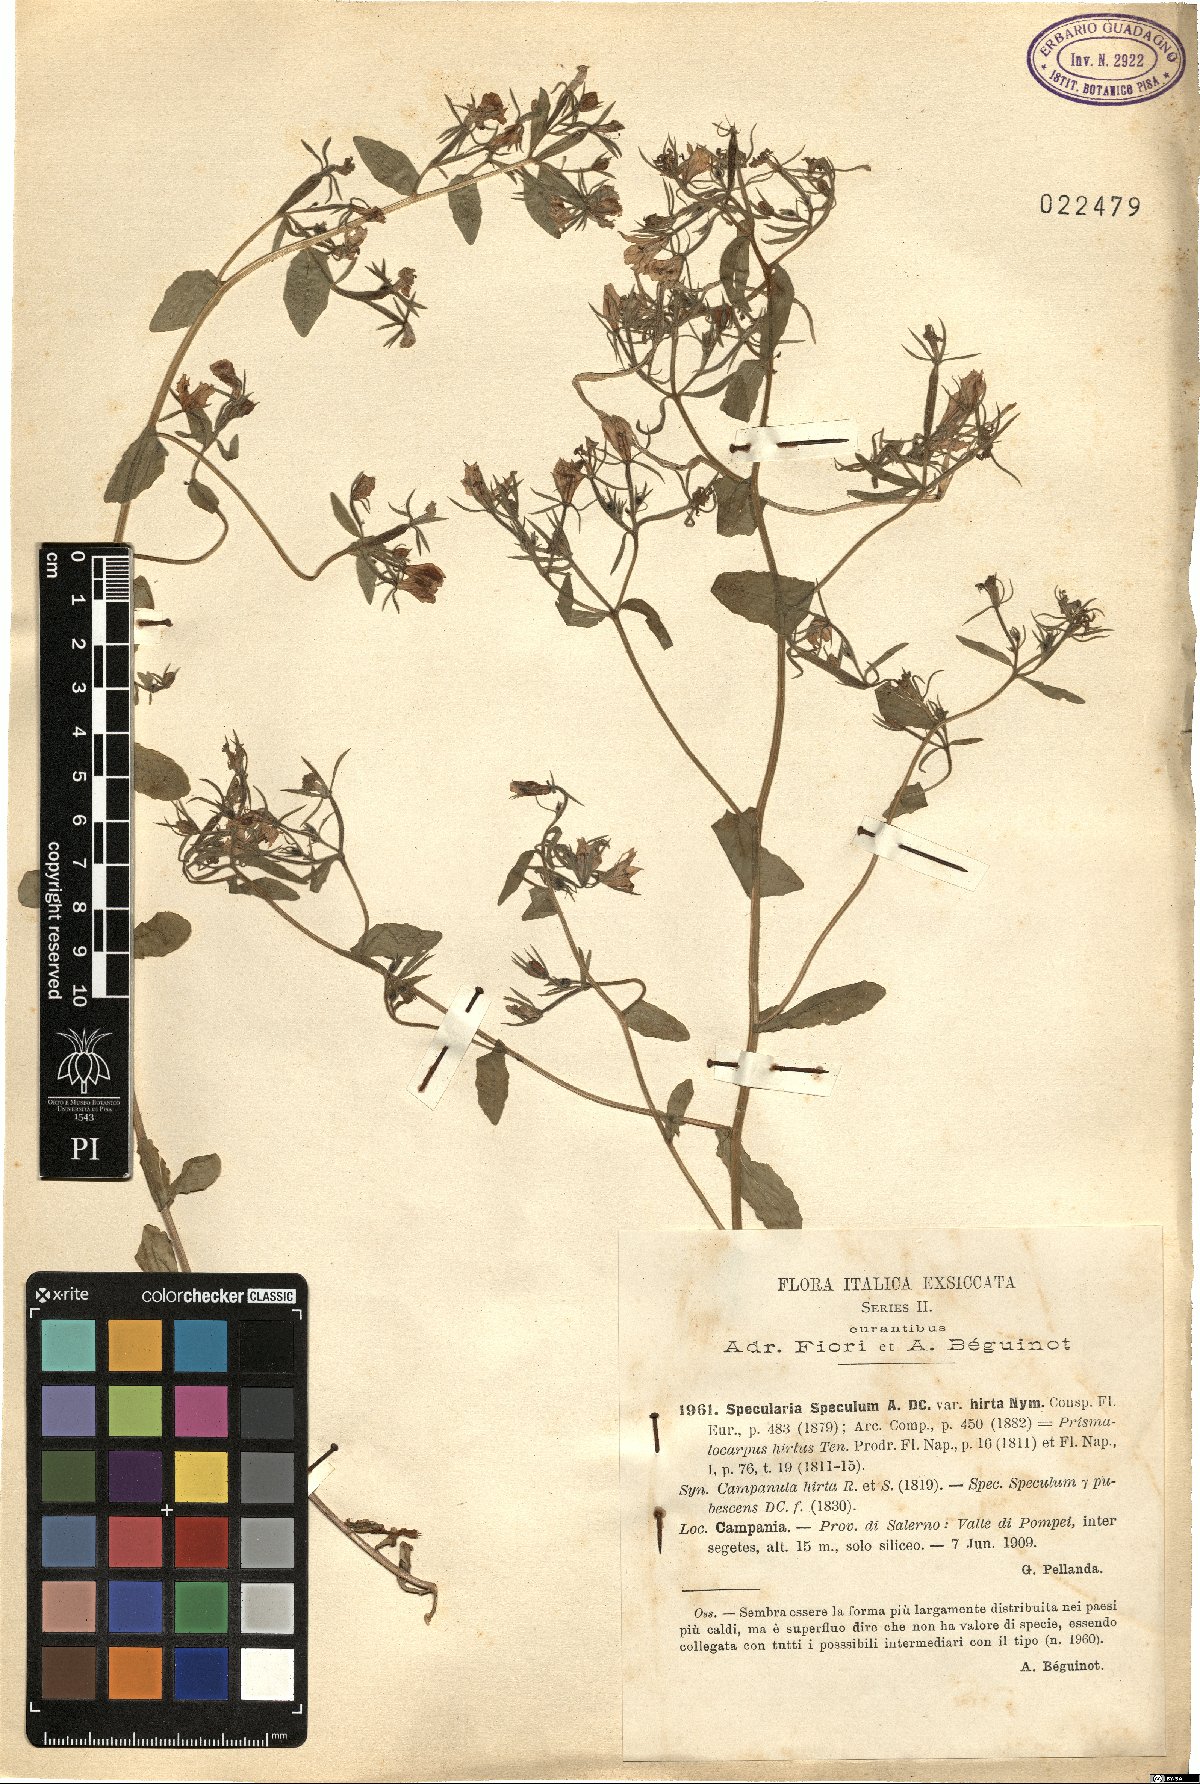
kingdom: Plantae
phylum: Tracheophyta
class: Magnoliopsida
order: Asterales
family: Campanulaceae
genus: Legousia
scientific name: Legousia speculum-veneris
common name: Large venus's-looking-glass
